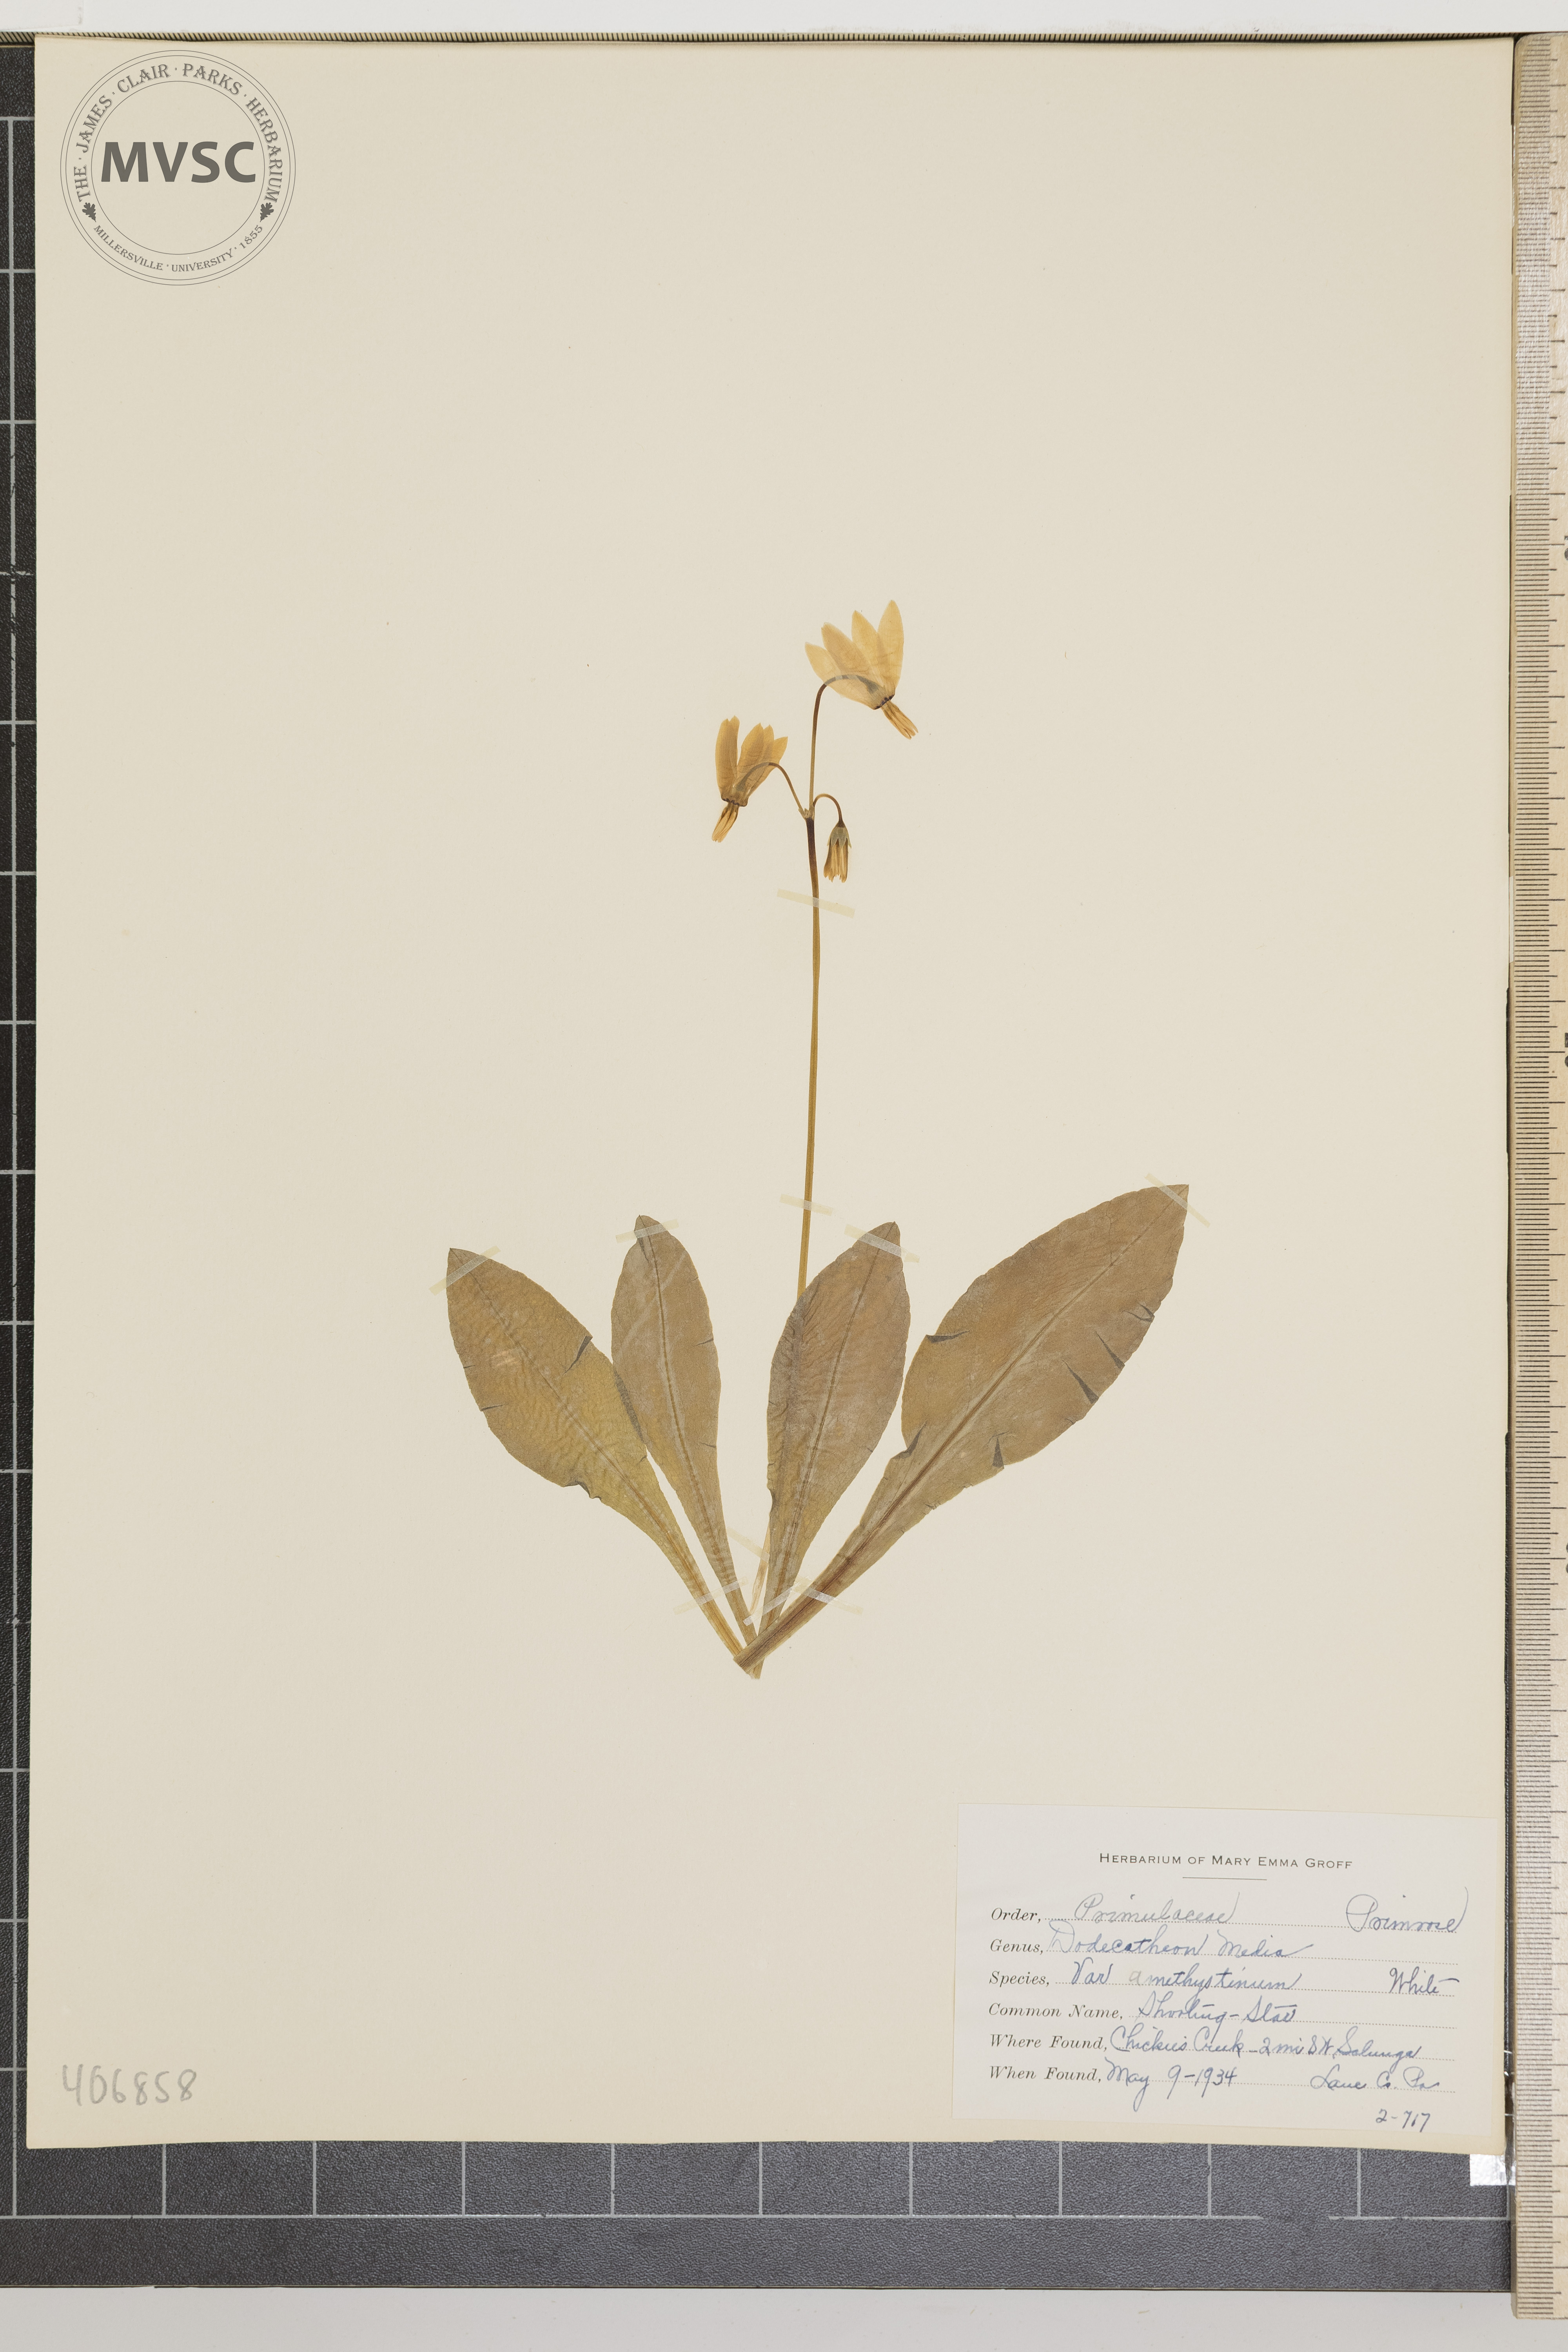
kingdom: Plantae
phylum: Tracheophyta
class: Magnoliopsida
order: Ericales
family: Primulaceae
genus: Dodecatheon
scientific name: Dodecatheon meadia
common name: jeweled shootingstar
